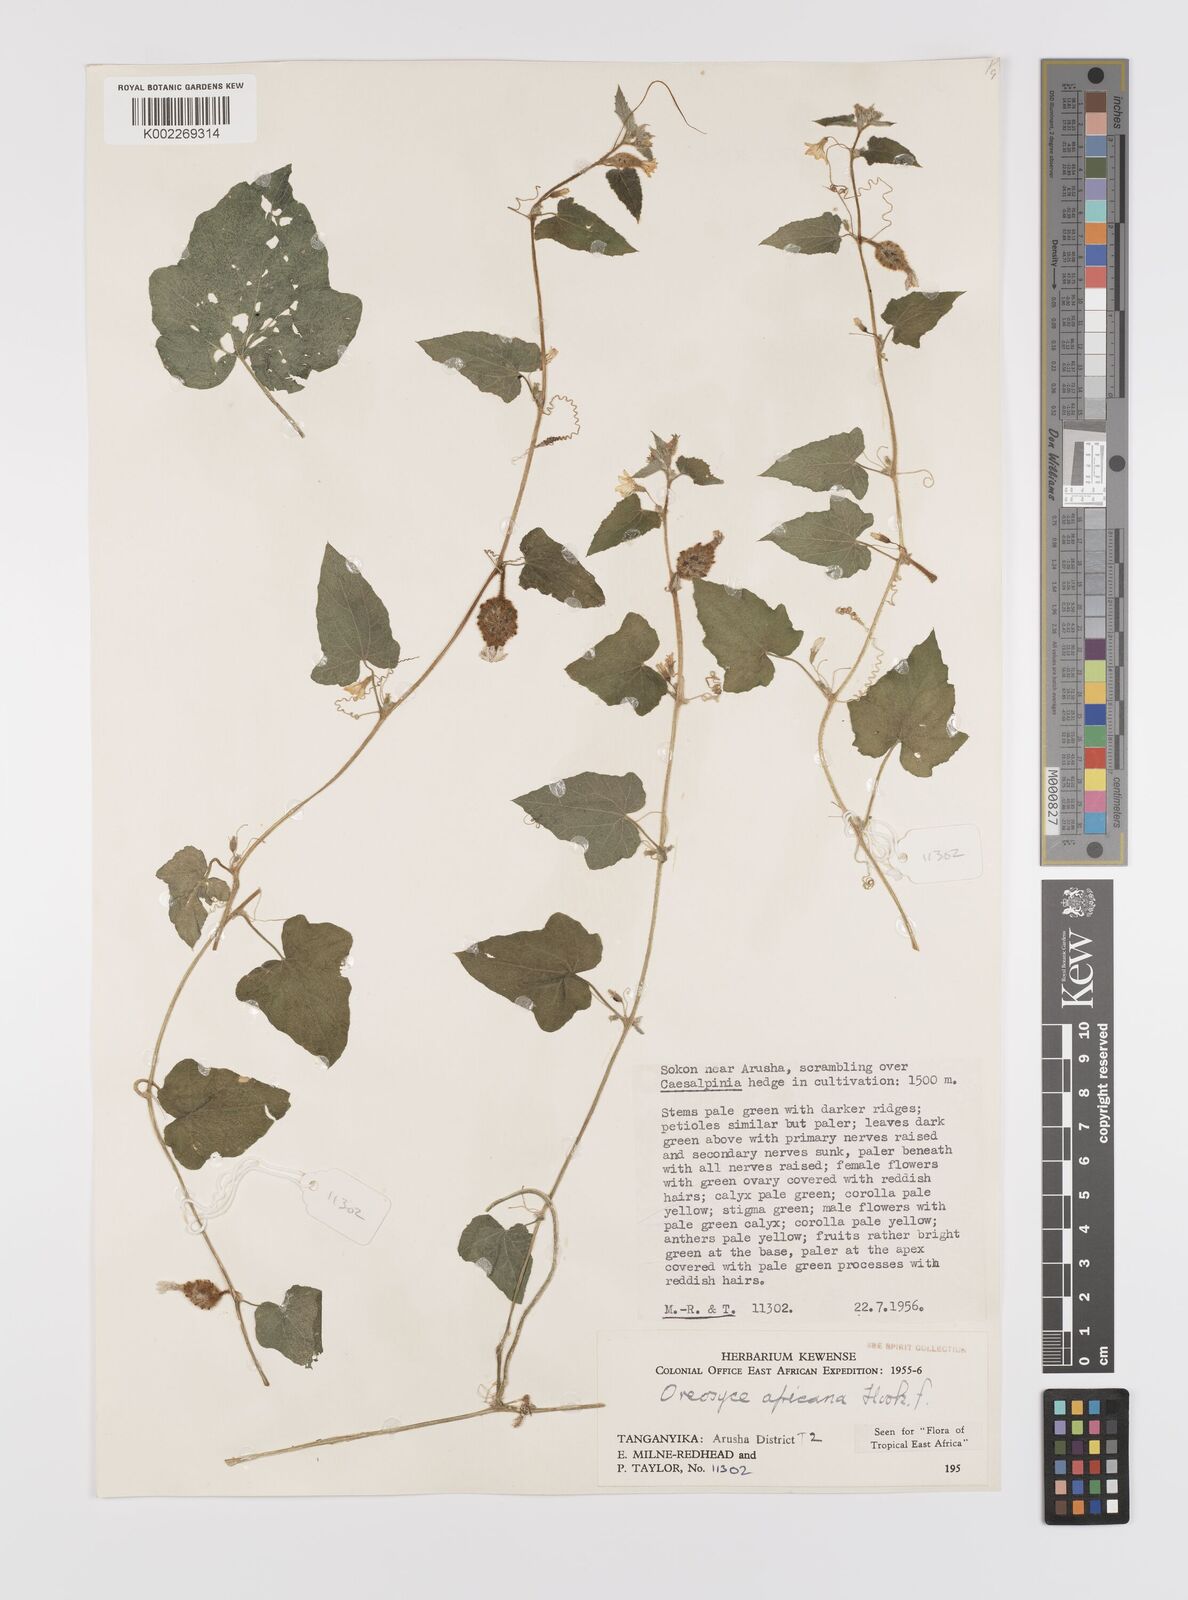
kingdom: Plantae
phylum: Tracheophyta
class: Magnoliopsida
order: Cucurbitales
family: Cucurbitaceae
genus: Cucumis
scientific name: Cucumis oreosyce
